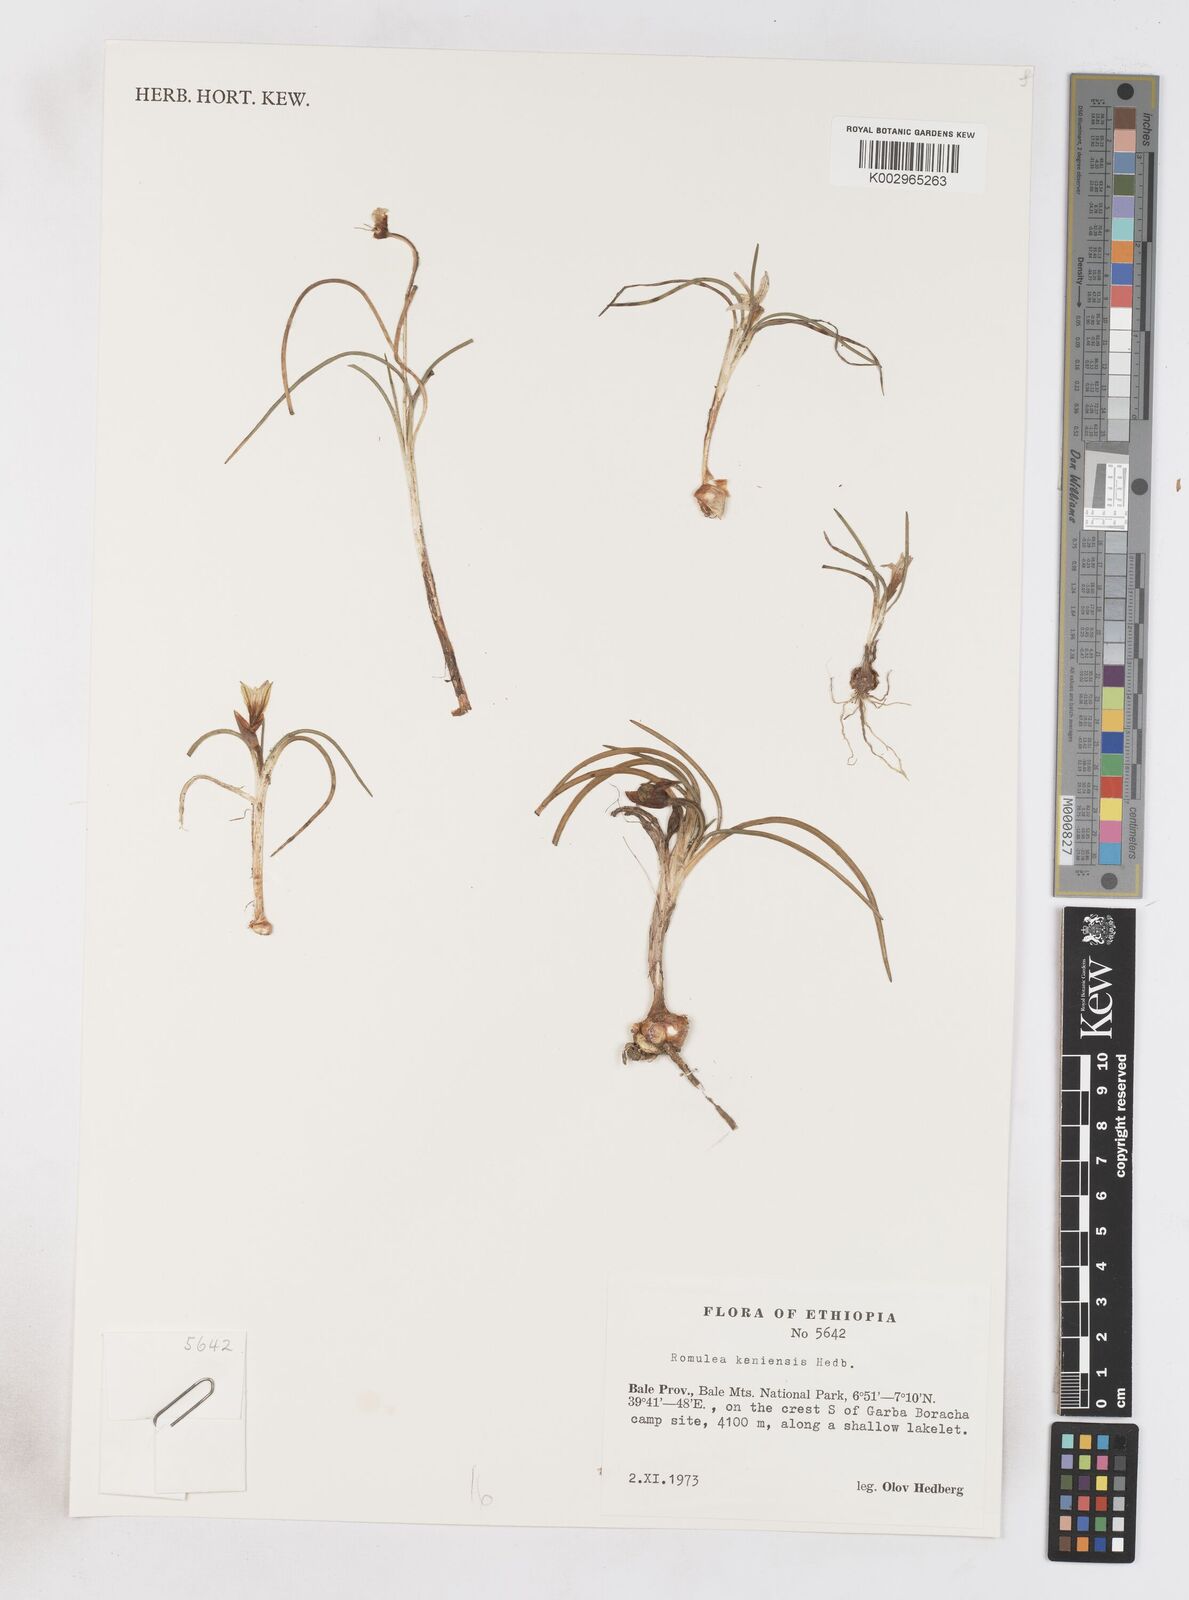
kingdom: Plantae
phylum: Tracheophyta
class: Liliopsida
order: Asparagales
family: Iridaceae
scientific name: Iridaceae
